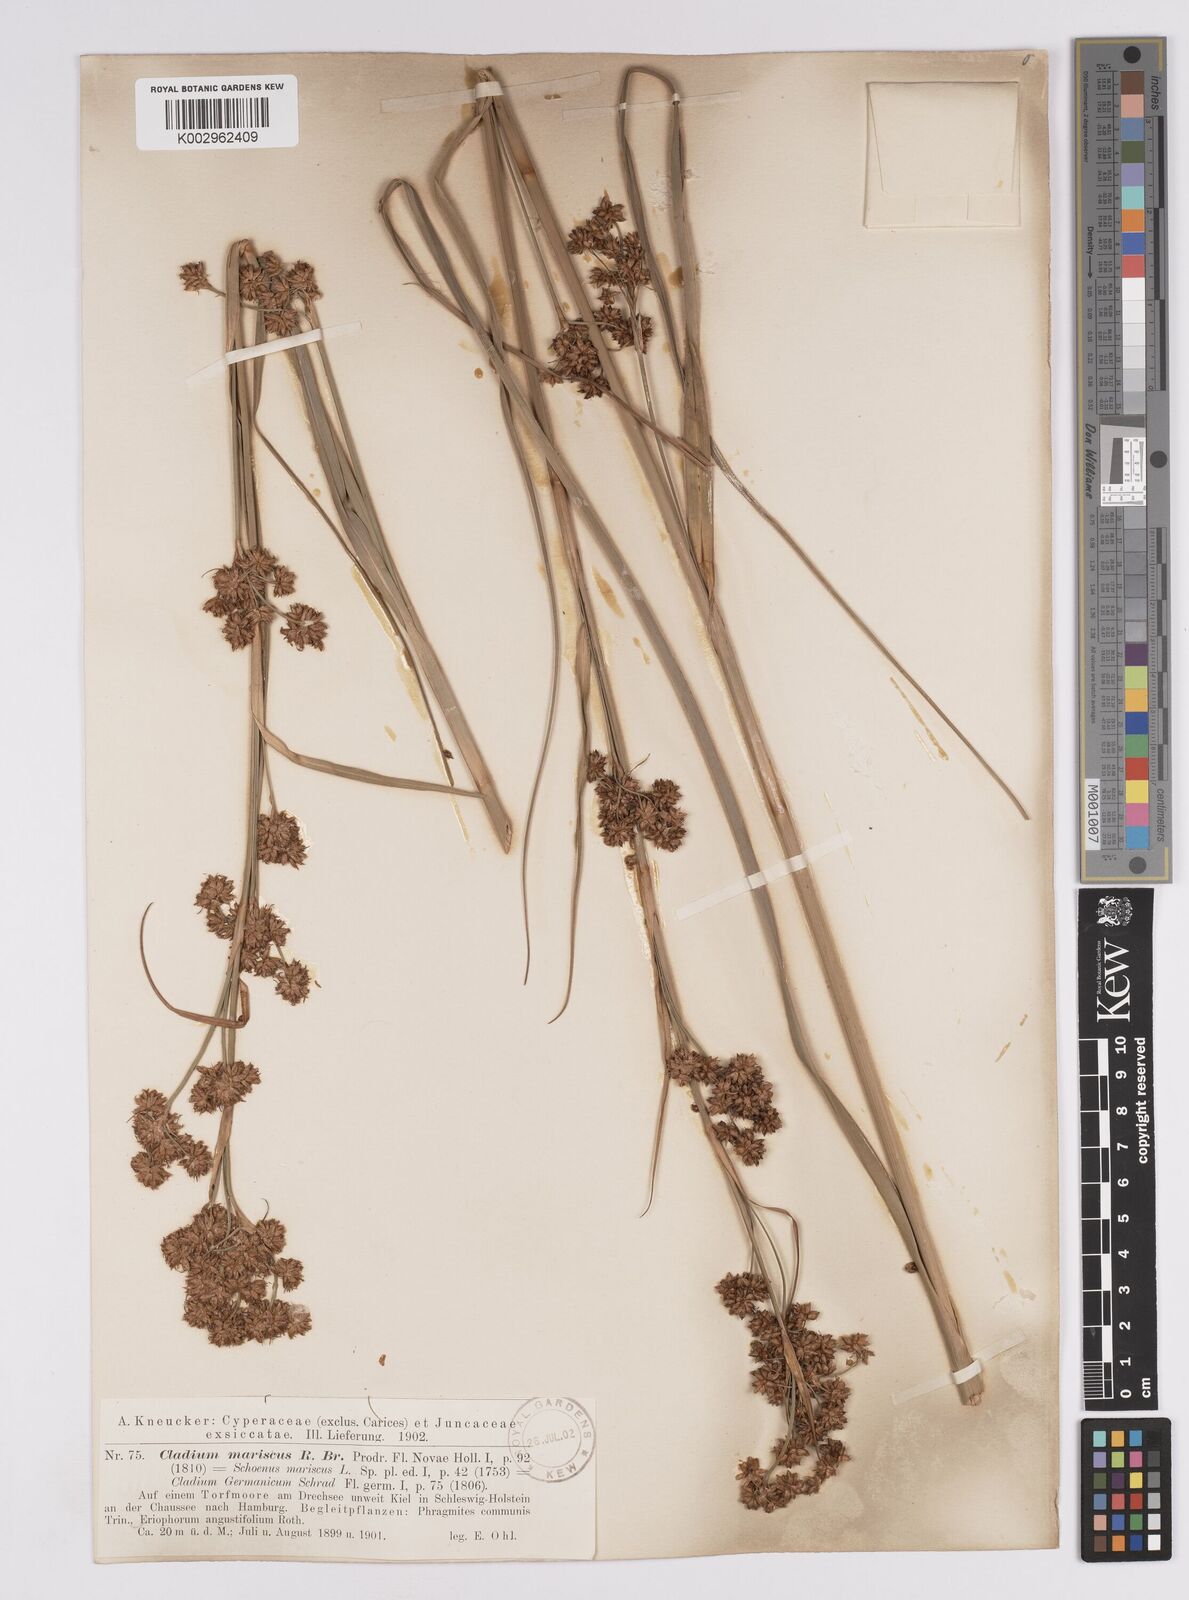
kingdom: Plantae
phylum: Tracheophyta
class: Liliopsida
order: Poales
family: Cyperaceae
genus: Cladium
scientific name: Cladium mariscus
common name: Great fen-sedge
